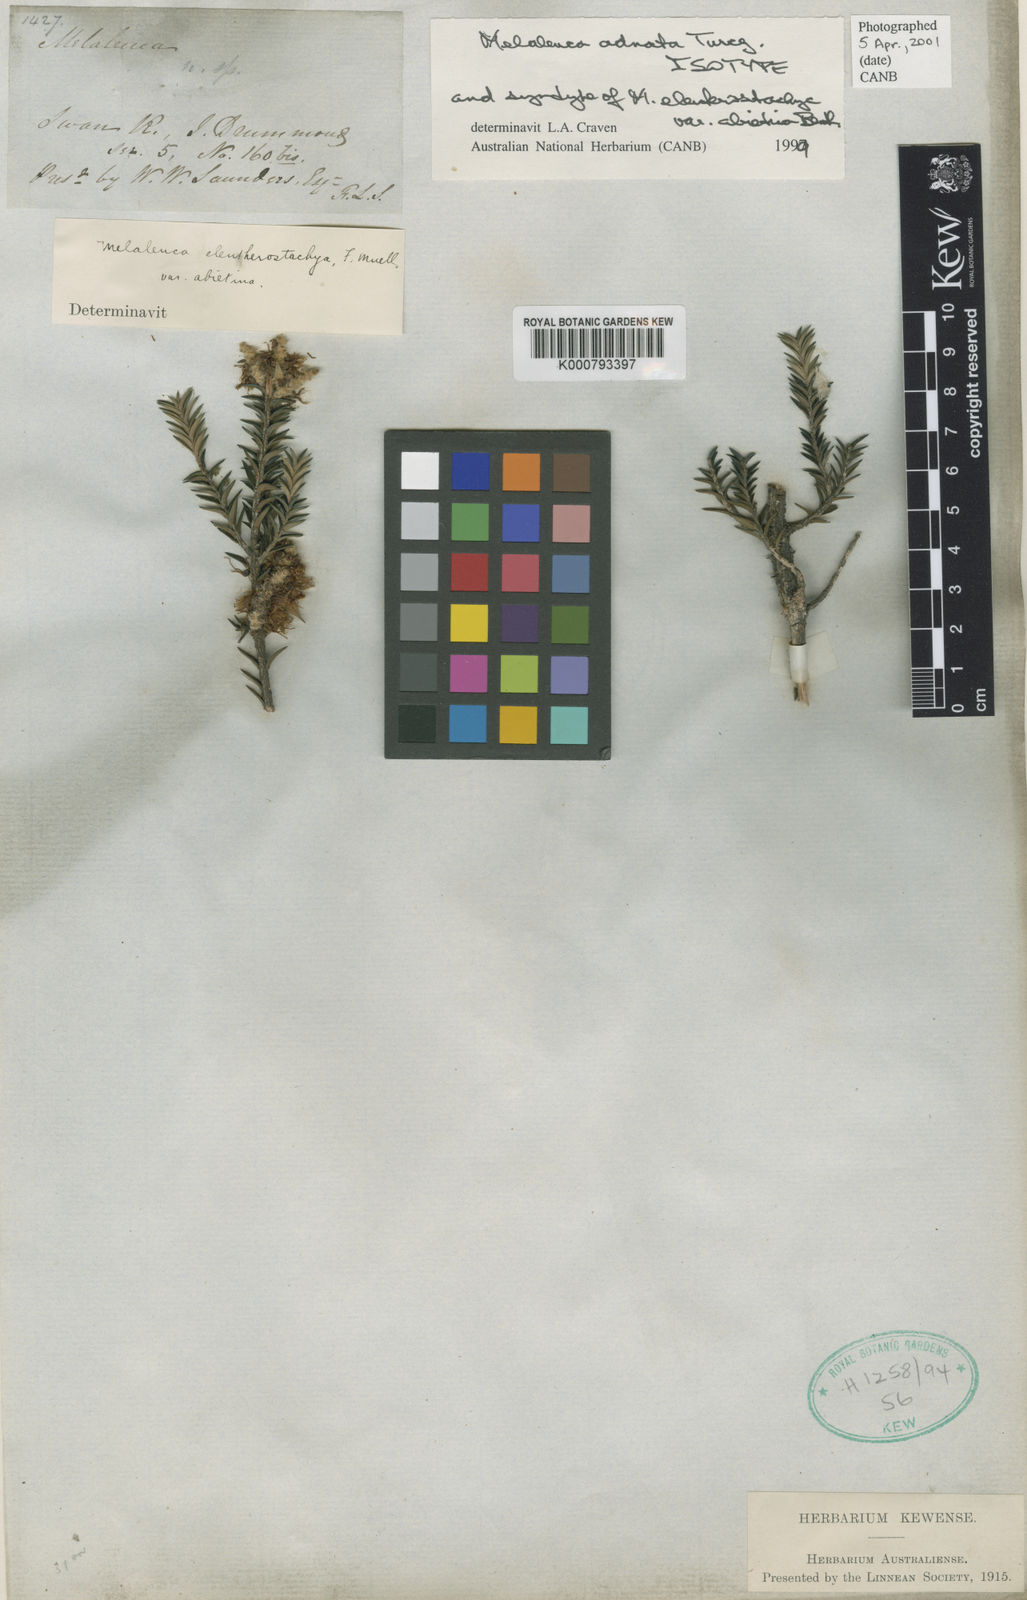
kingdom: Plantae
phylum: Tracheophyta
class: Magnoliopsida
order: Myrtales
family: Myrtaceae
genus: Melaleuca
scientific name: Melaleuca adnata
